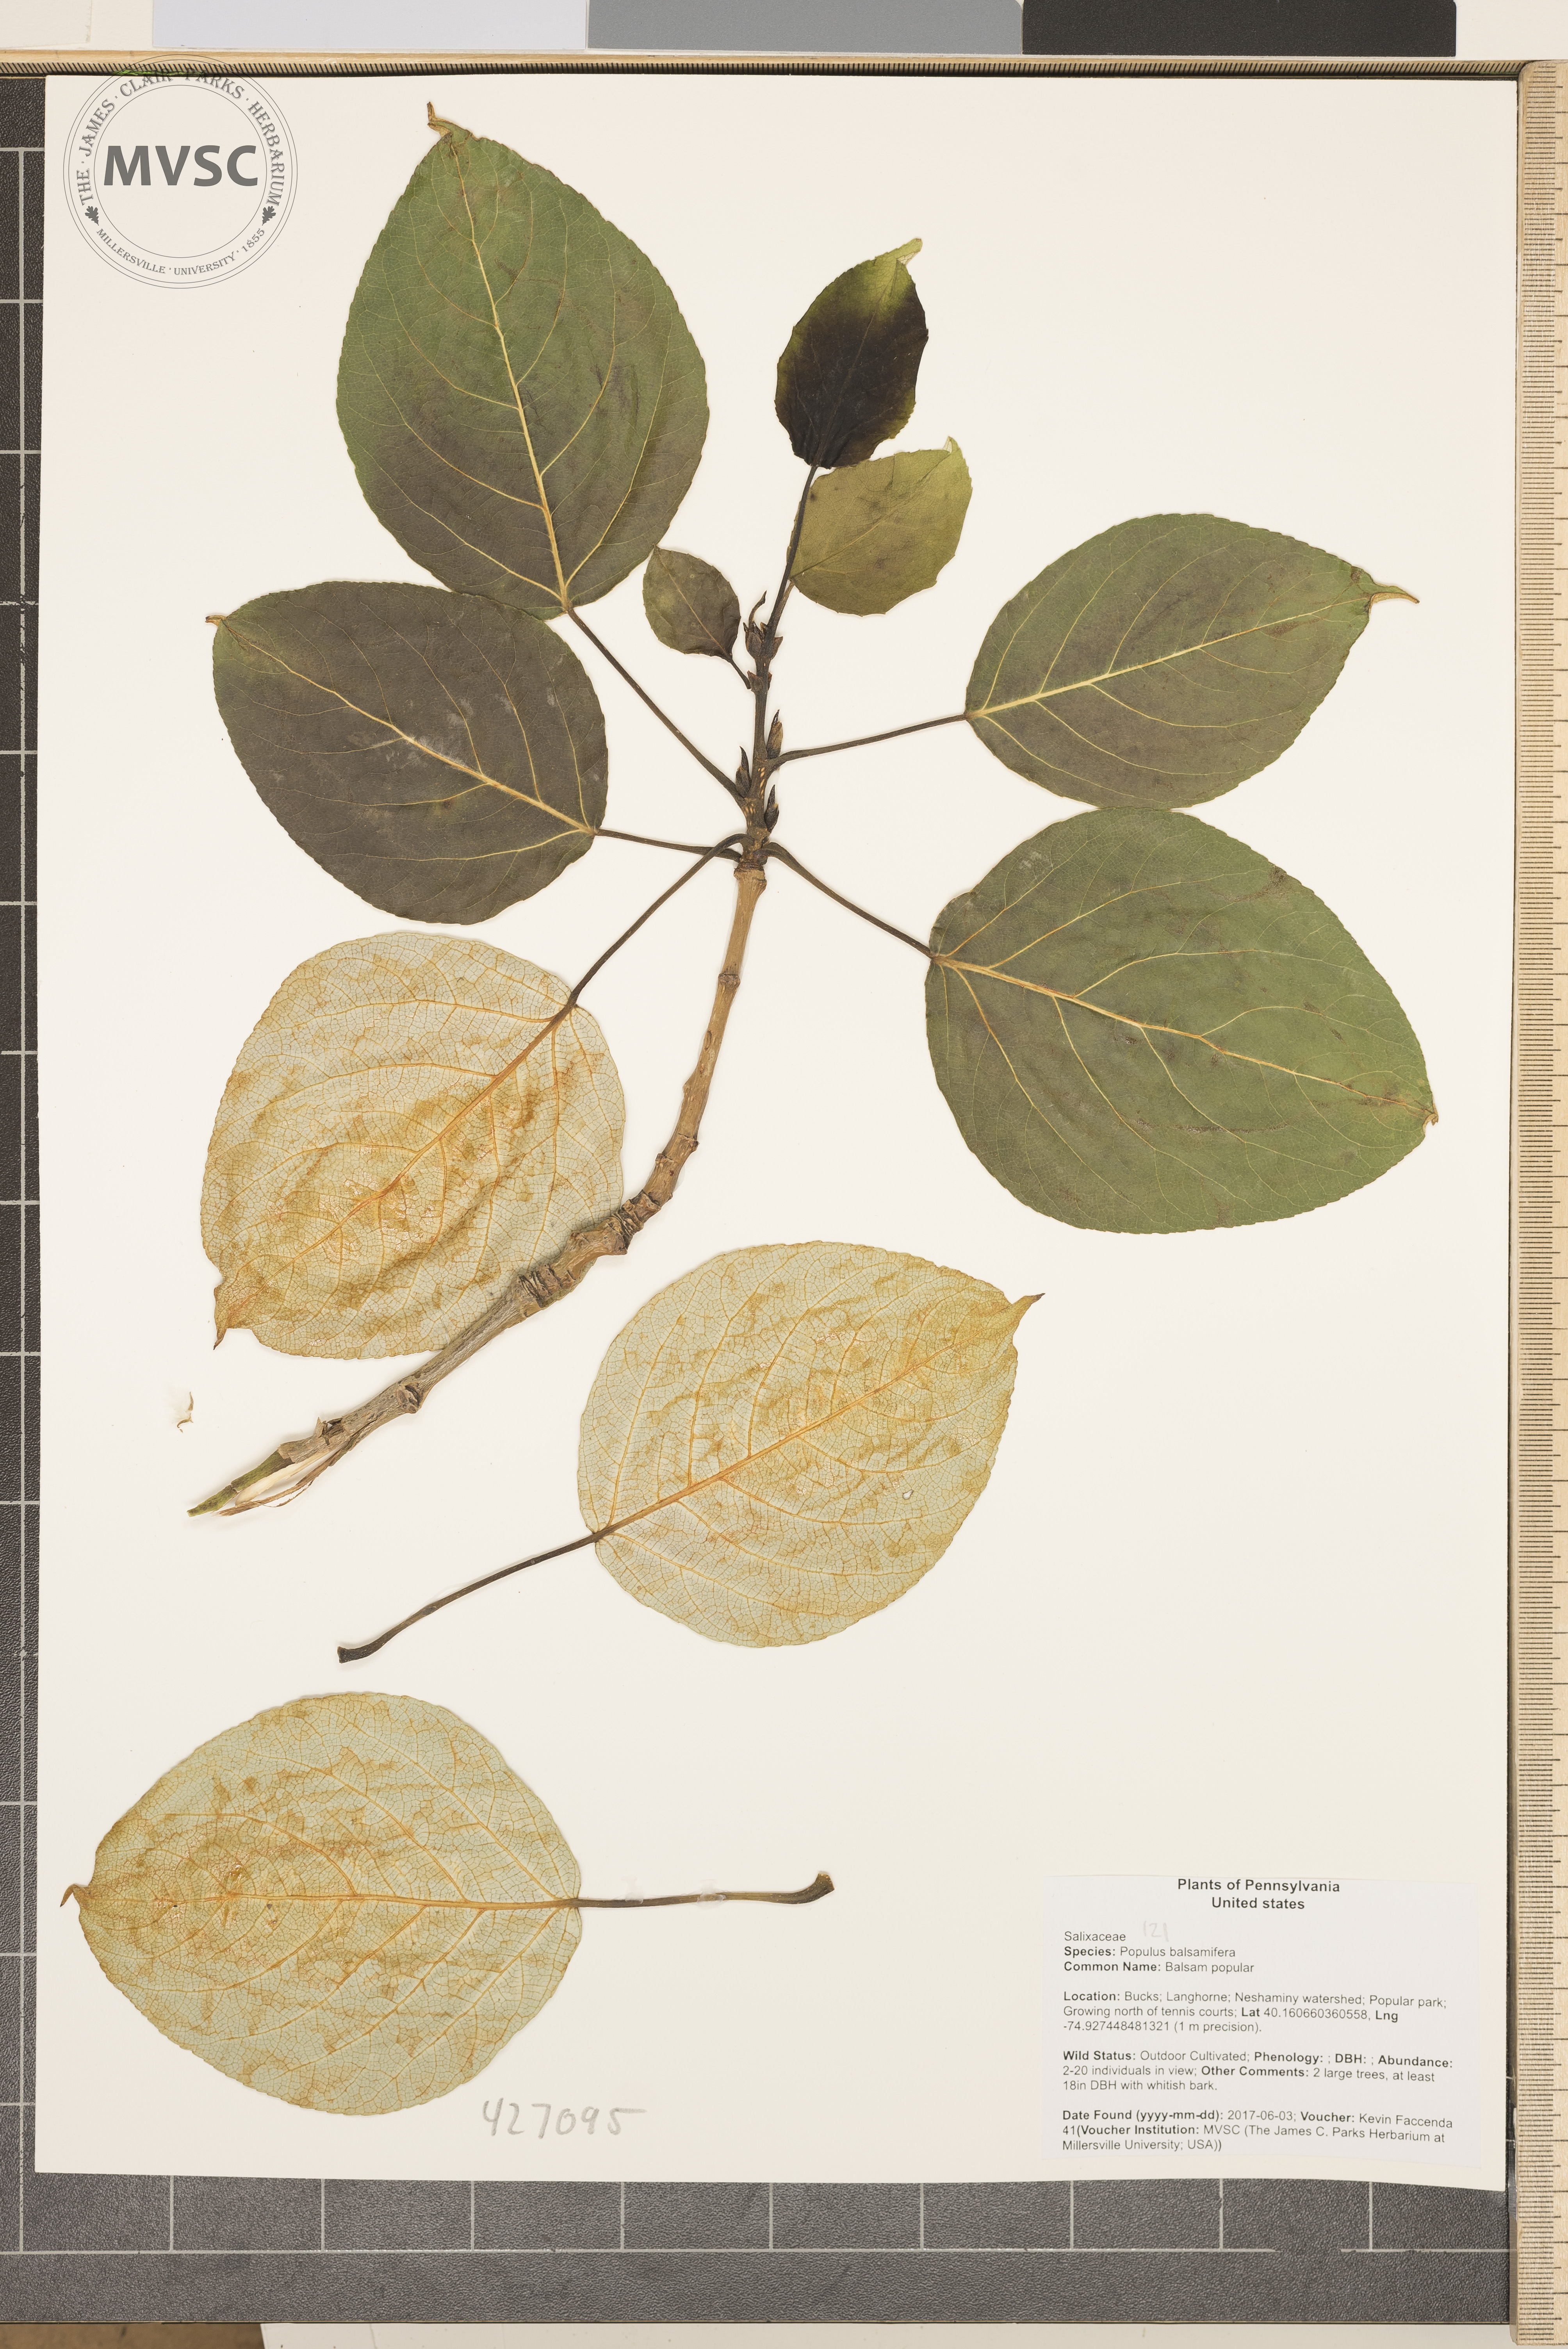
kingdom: Plantae
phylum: Tracheophyta
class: Magnoliopsida
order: Malpighiales
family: Salicaceae
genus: Populus
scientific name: Populus balsamifera
